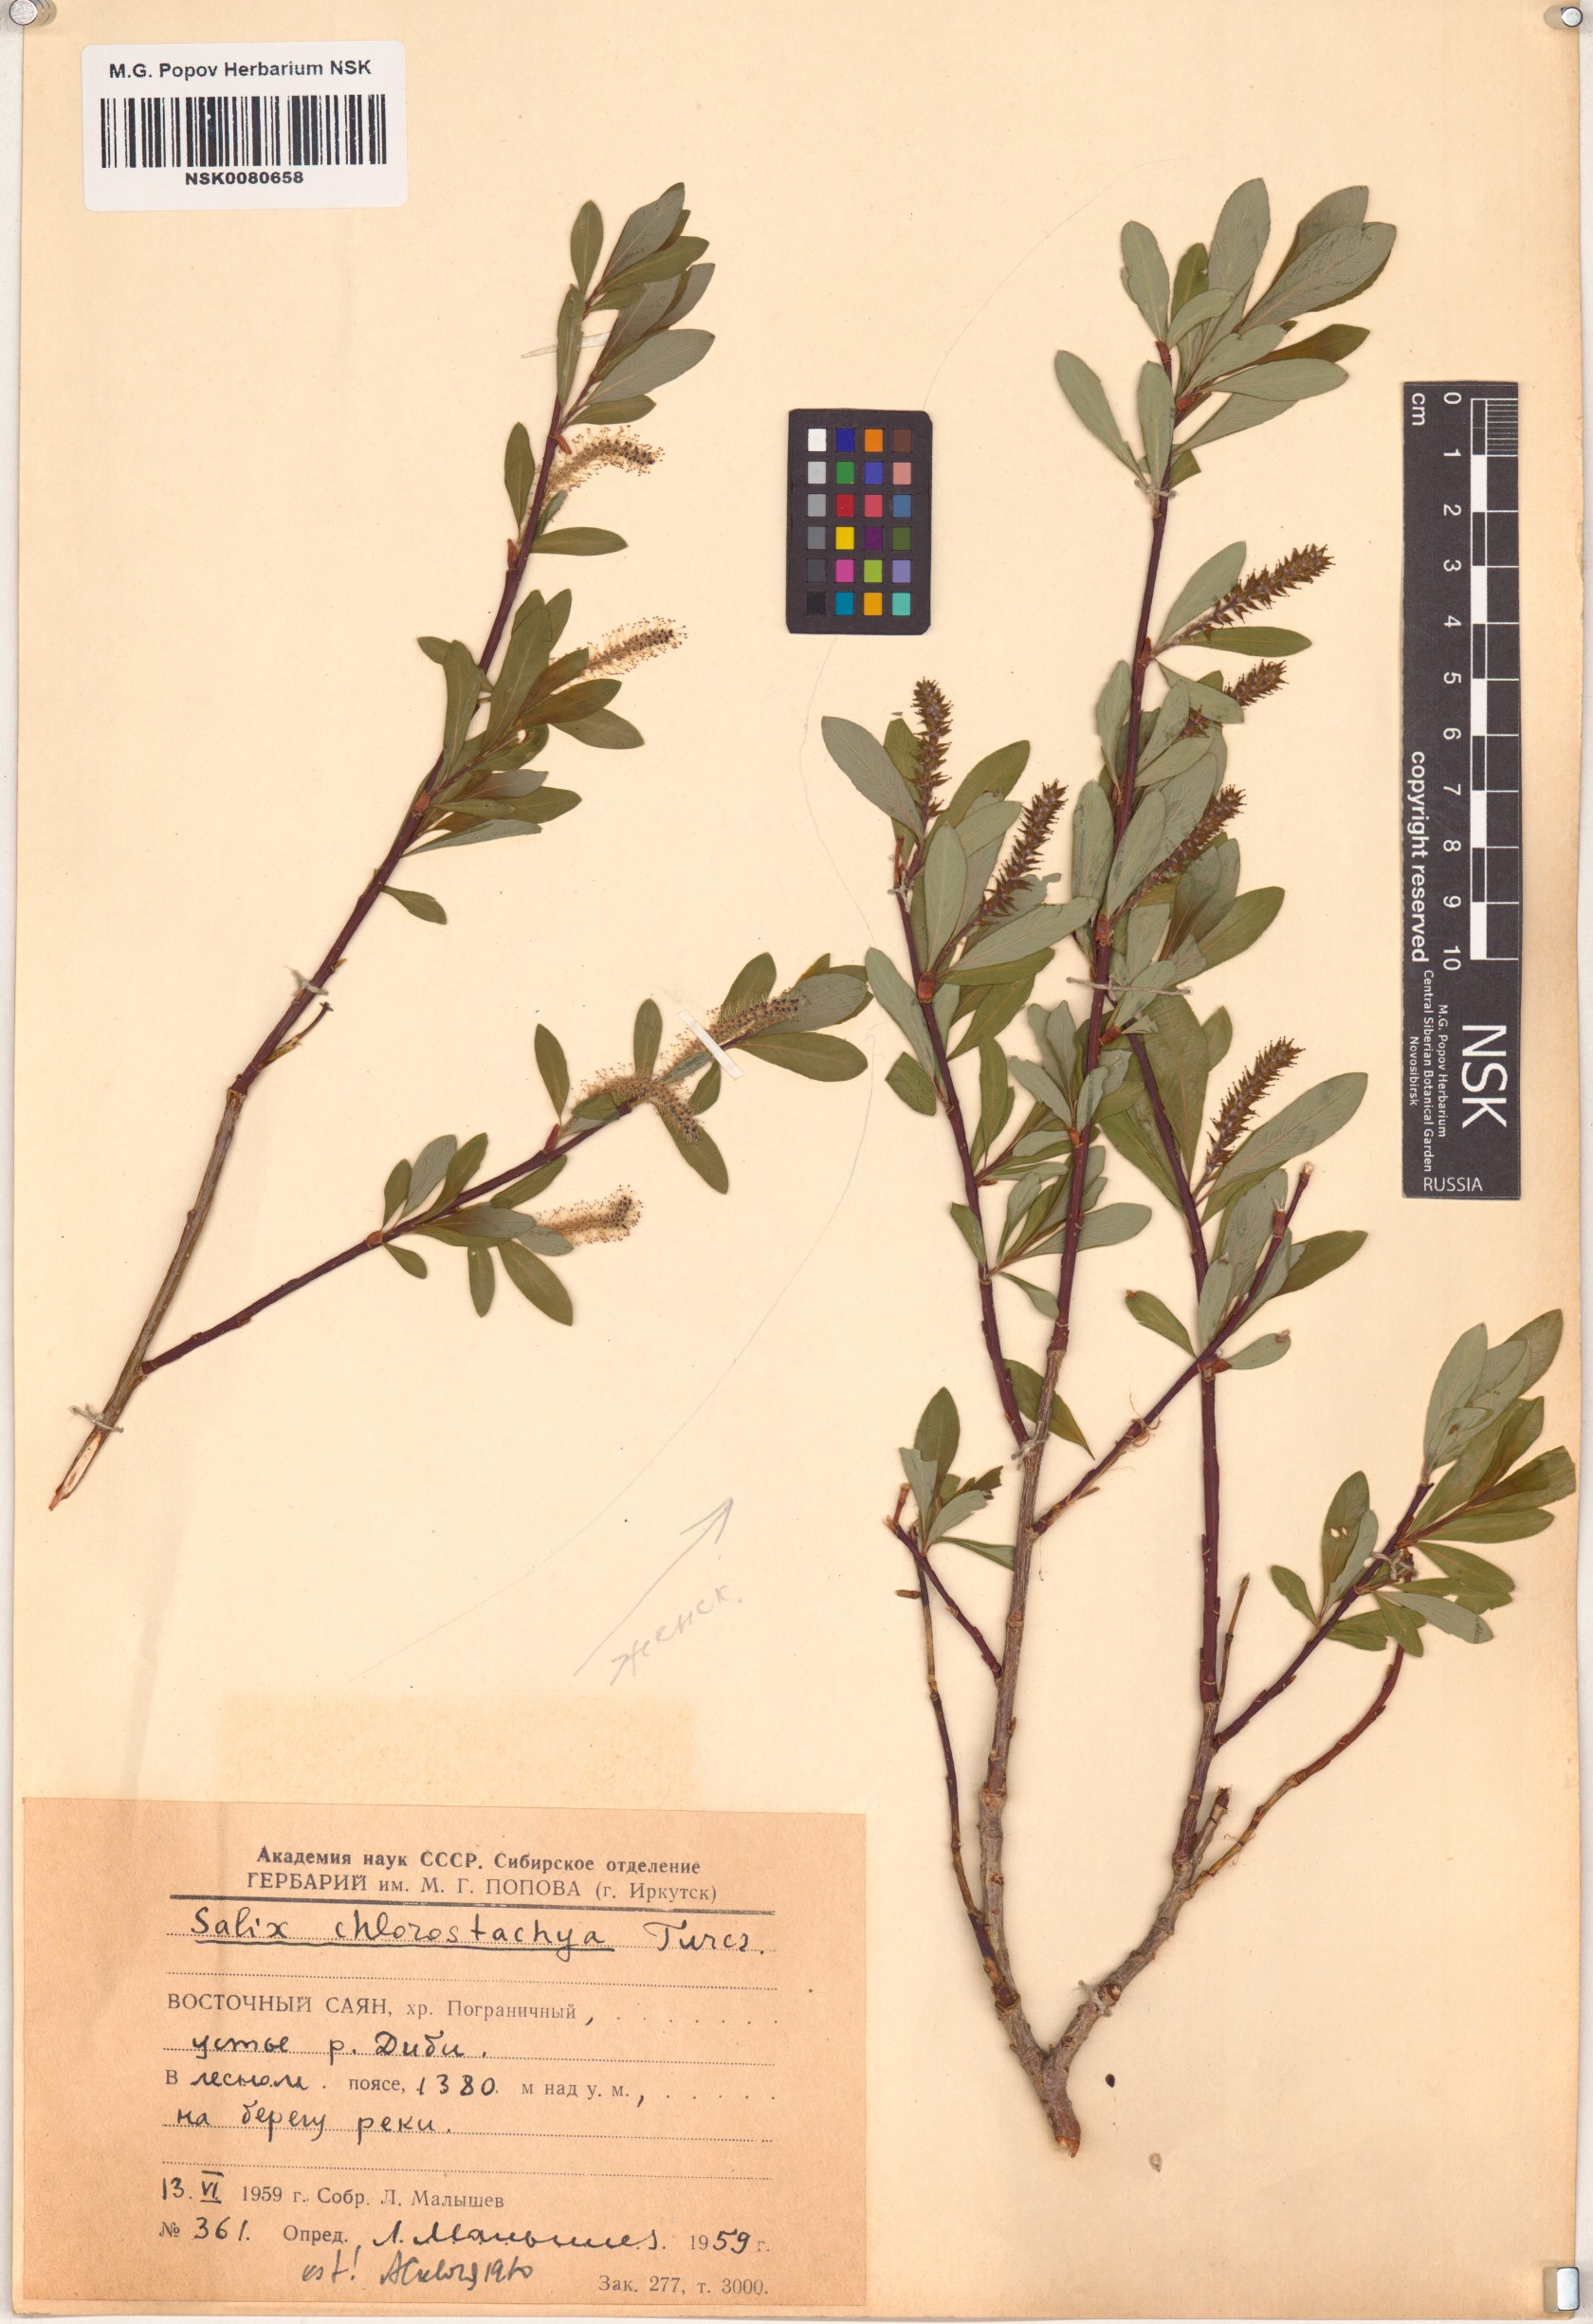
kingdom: Plantae
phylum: Tracheophyta
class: Magnoliopsida
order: Malpighiales
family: Salicaceae
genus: Salix
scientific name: Salix rhamnifolia
